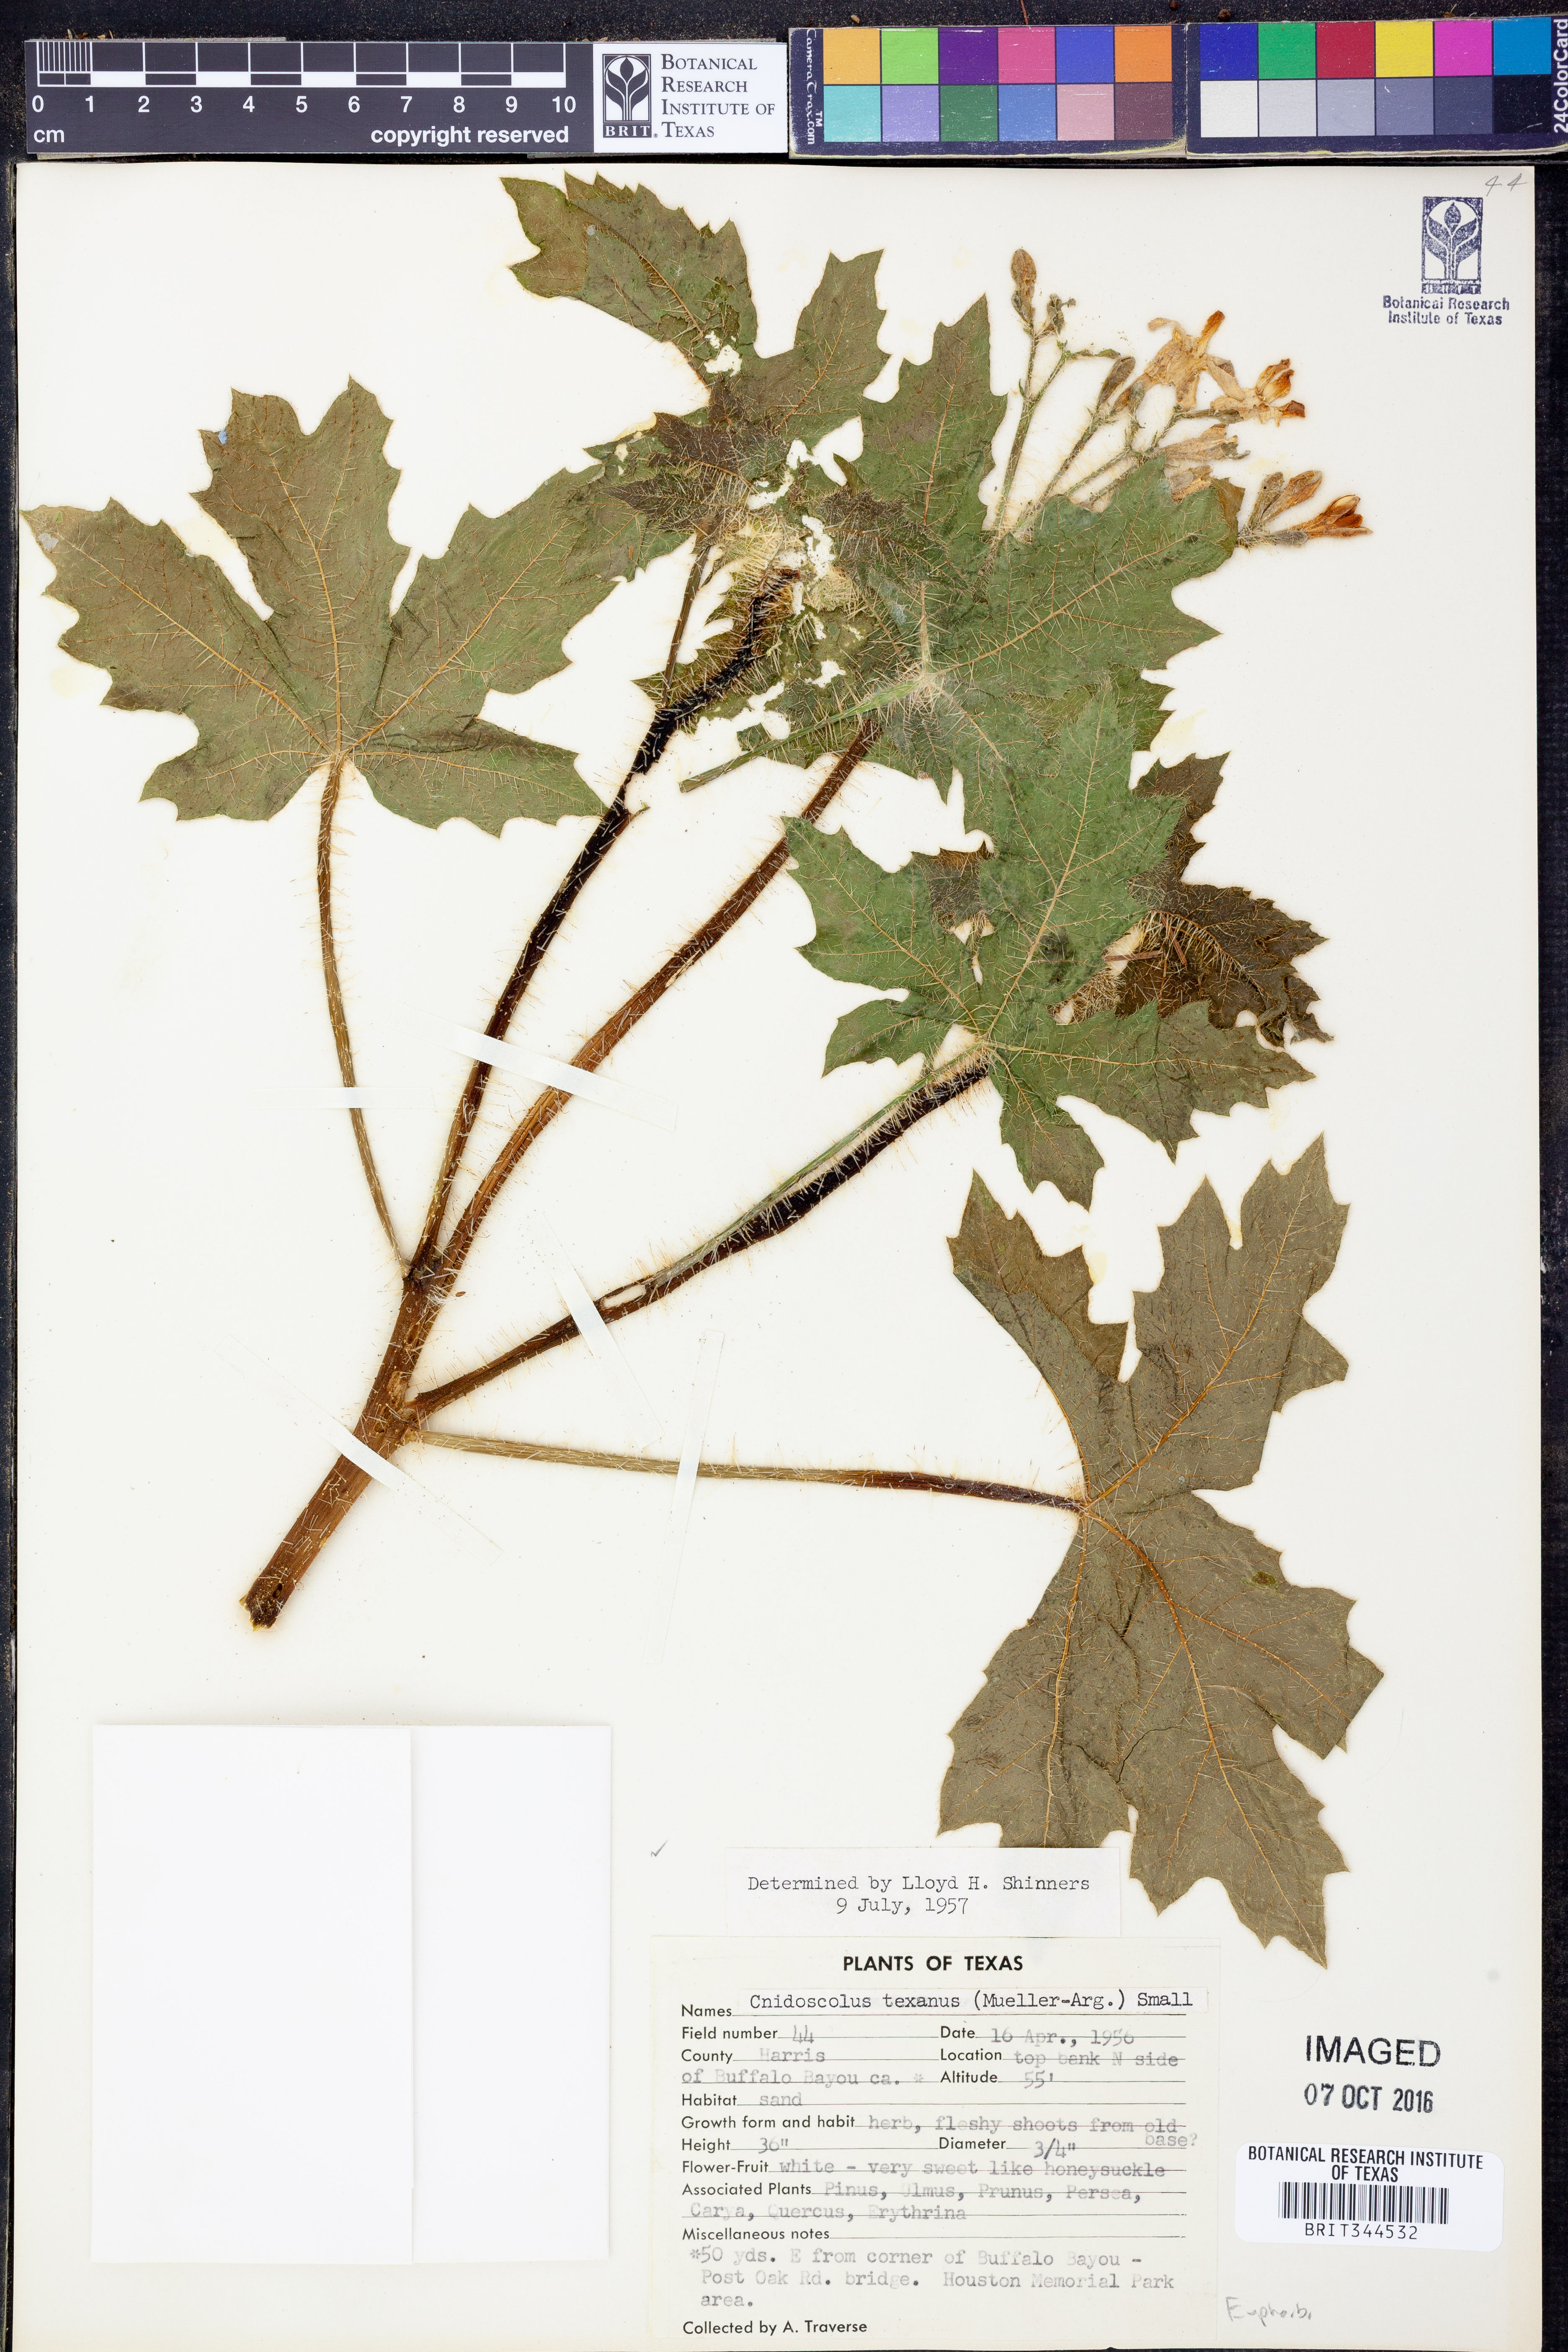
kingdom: Plantae
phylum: Tracheophyta
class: Magnoliopsida
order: Malpighiales
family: Euphorbiaceae
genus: Cnidoscolus
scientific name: Cnidoscolus texanus
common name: Texas bull-nettle
